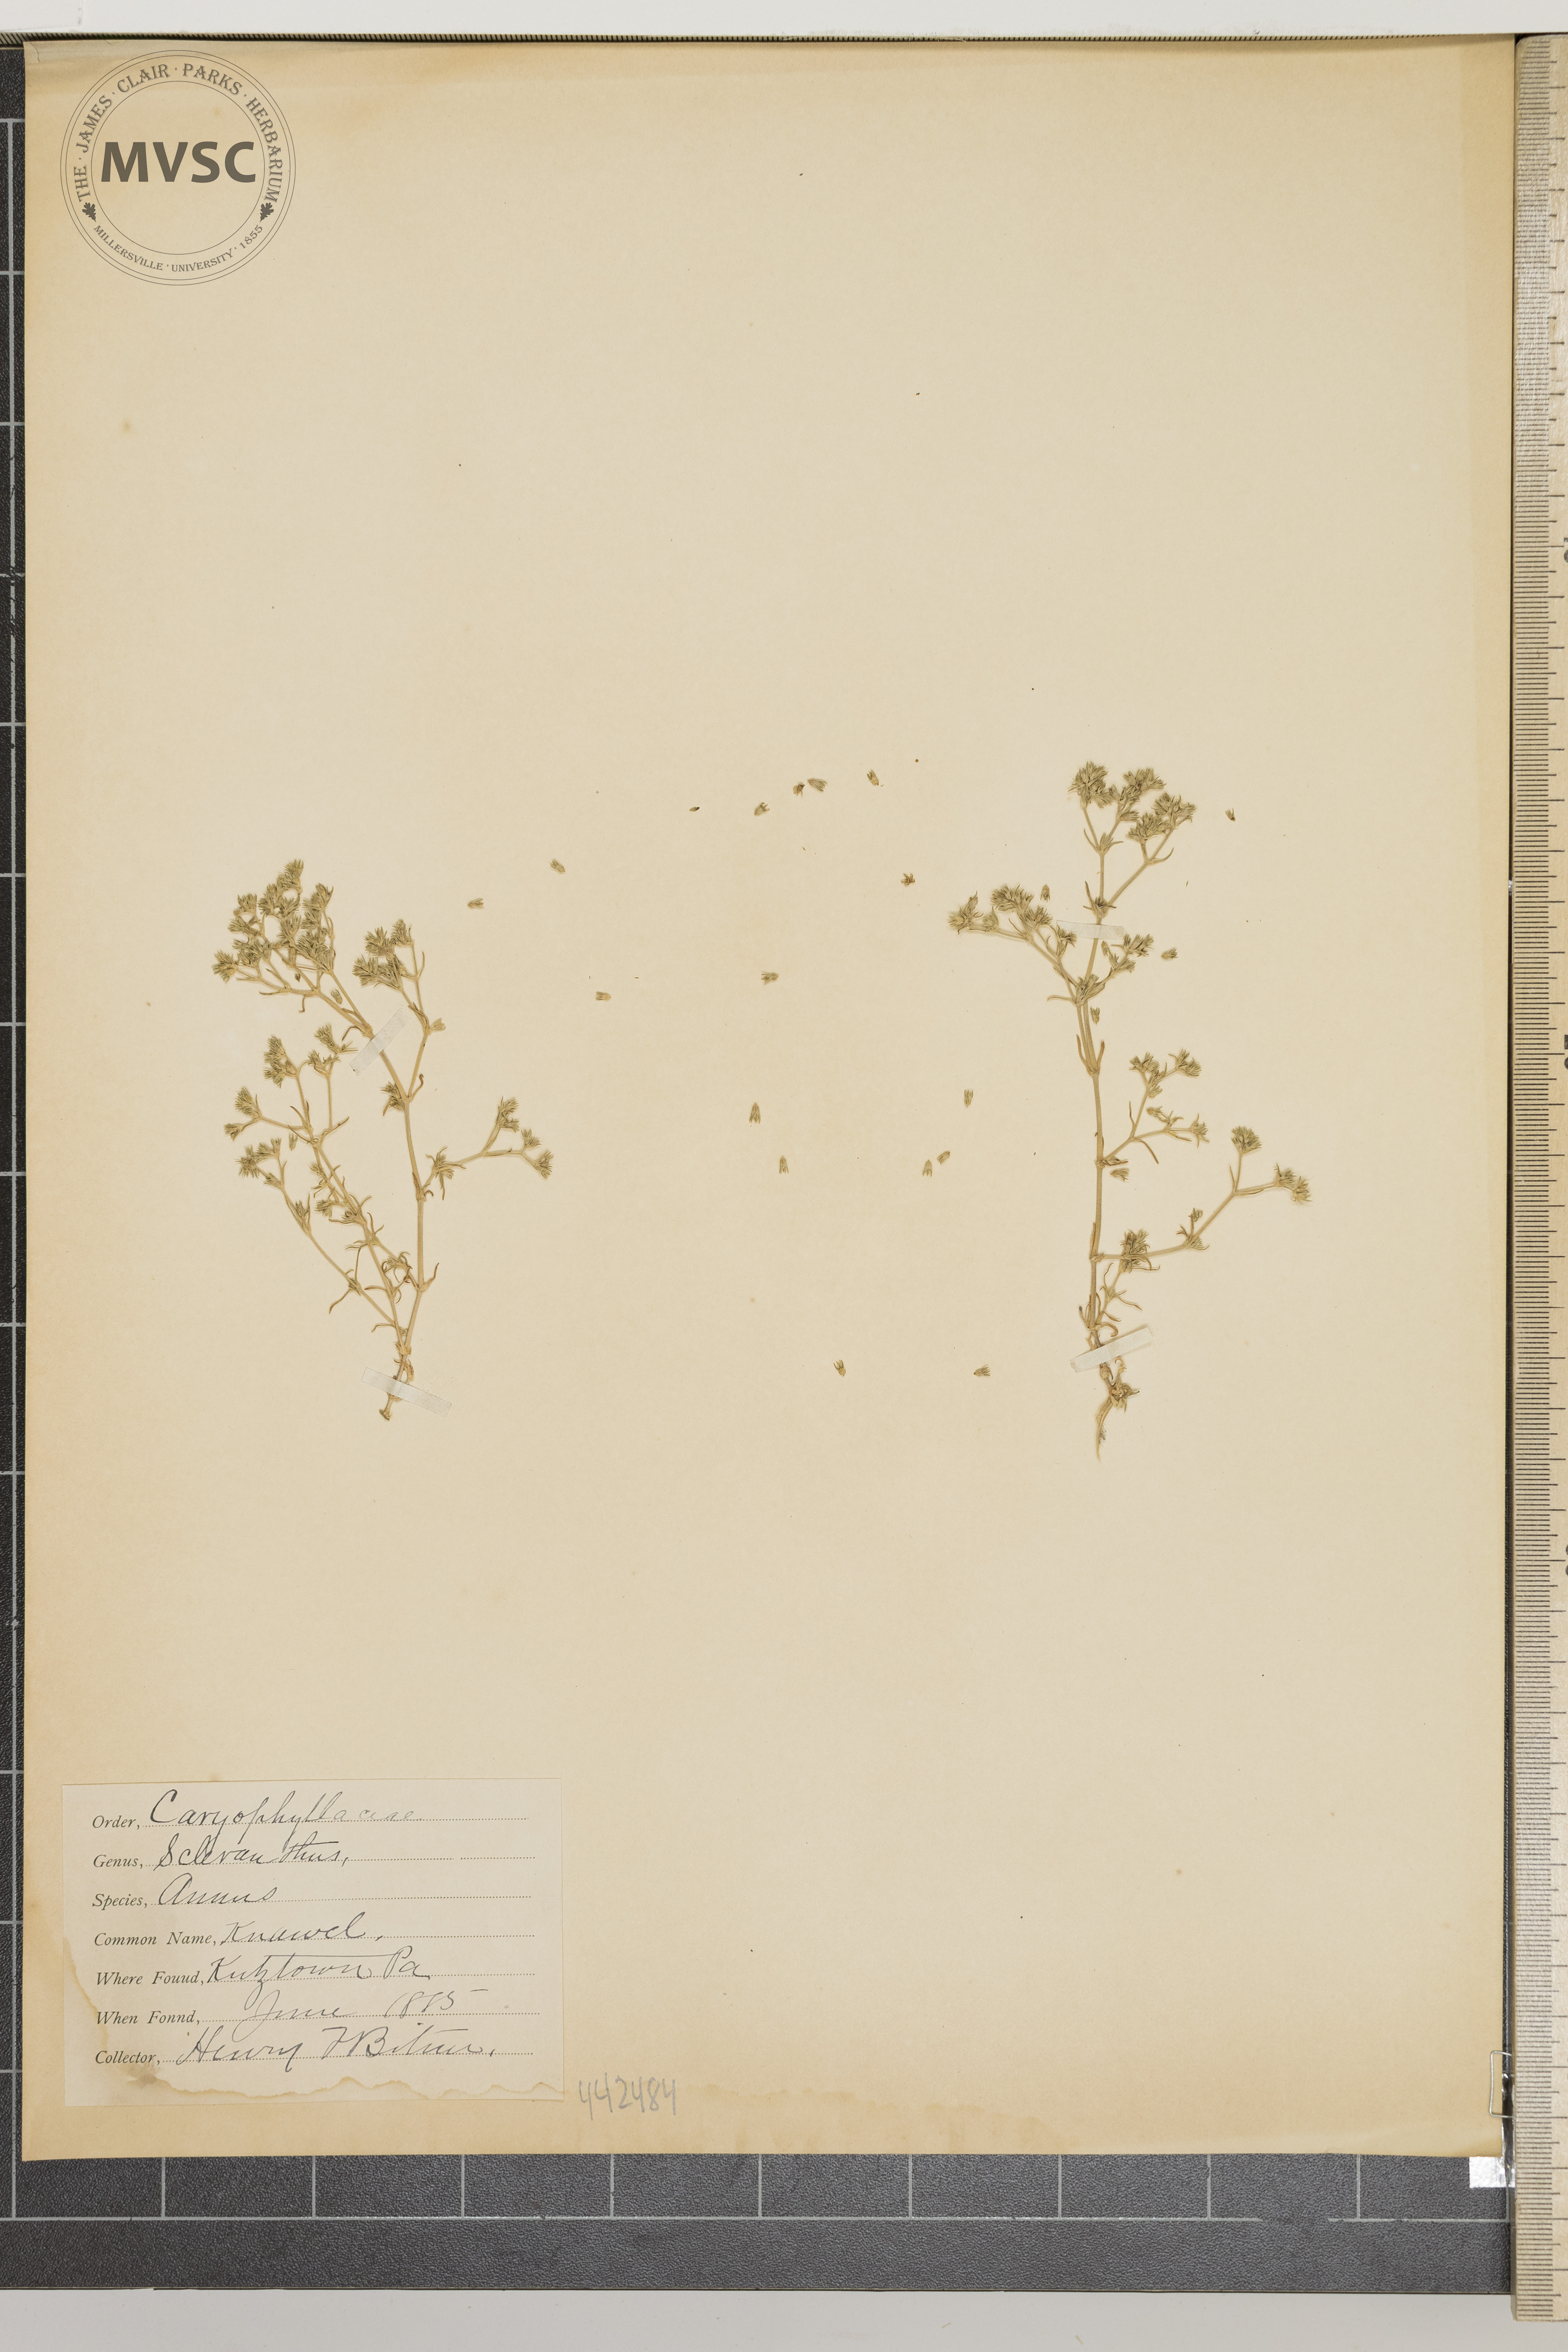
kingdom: Plantae
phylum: Tracheophyta
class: Magnoliopsida
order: Caryophyllales
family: Caryophyllaceae
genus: Scleranthus
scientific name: Scleranthus annuus
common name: Knawel
